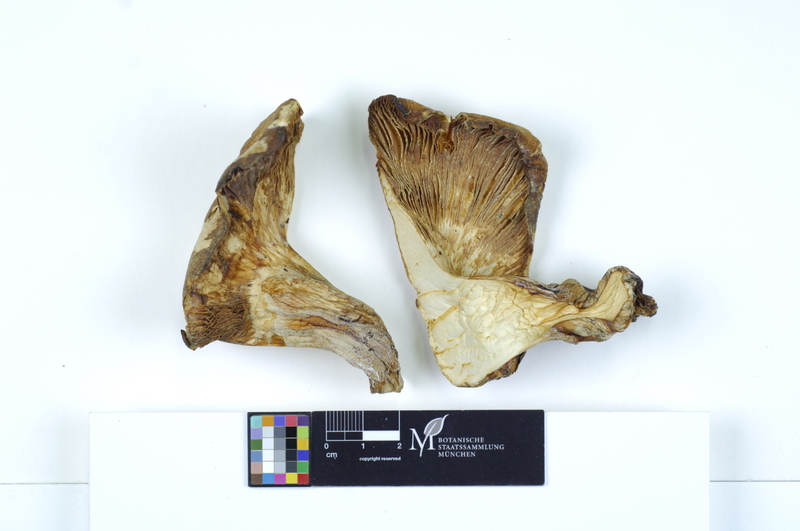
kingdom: Fungi
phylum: Basidiomycota
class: Agaricomycetes
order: Agaricales
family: Lyophyllaceae
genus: Lyophyllum
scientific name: Lyophyllum decastes
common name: Clustered domecap
